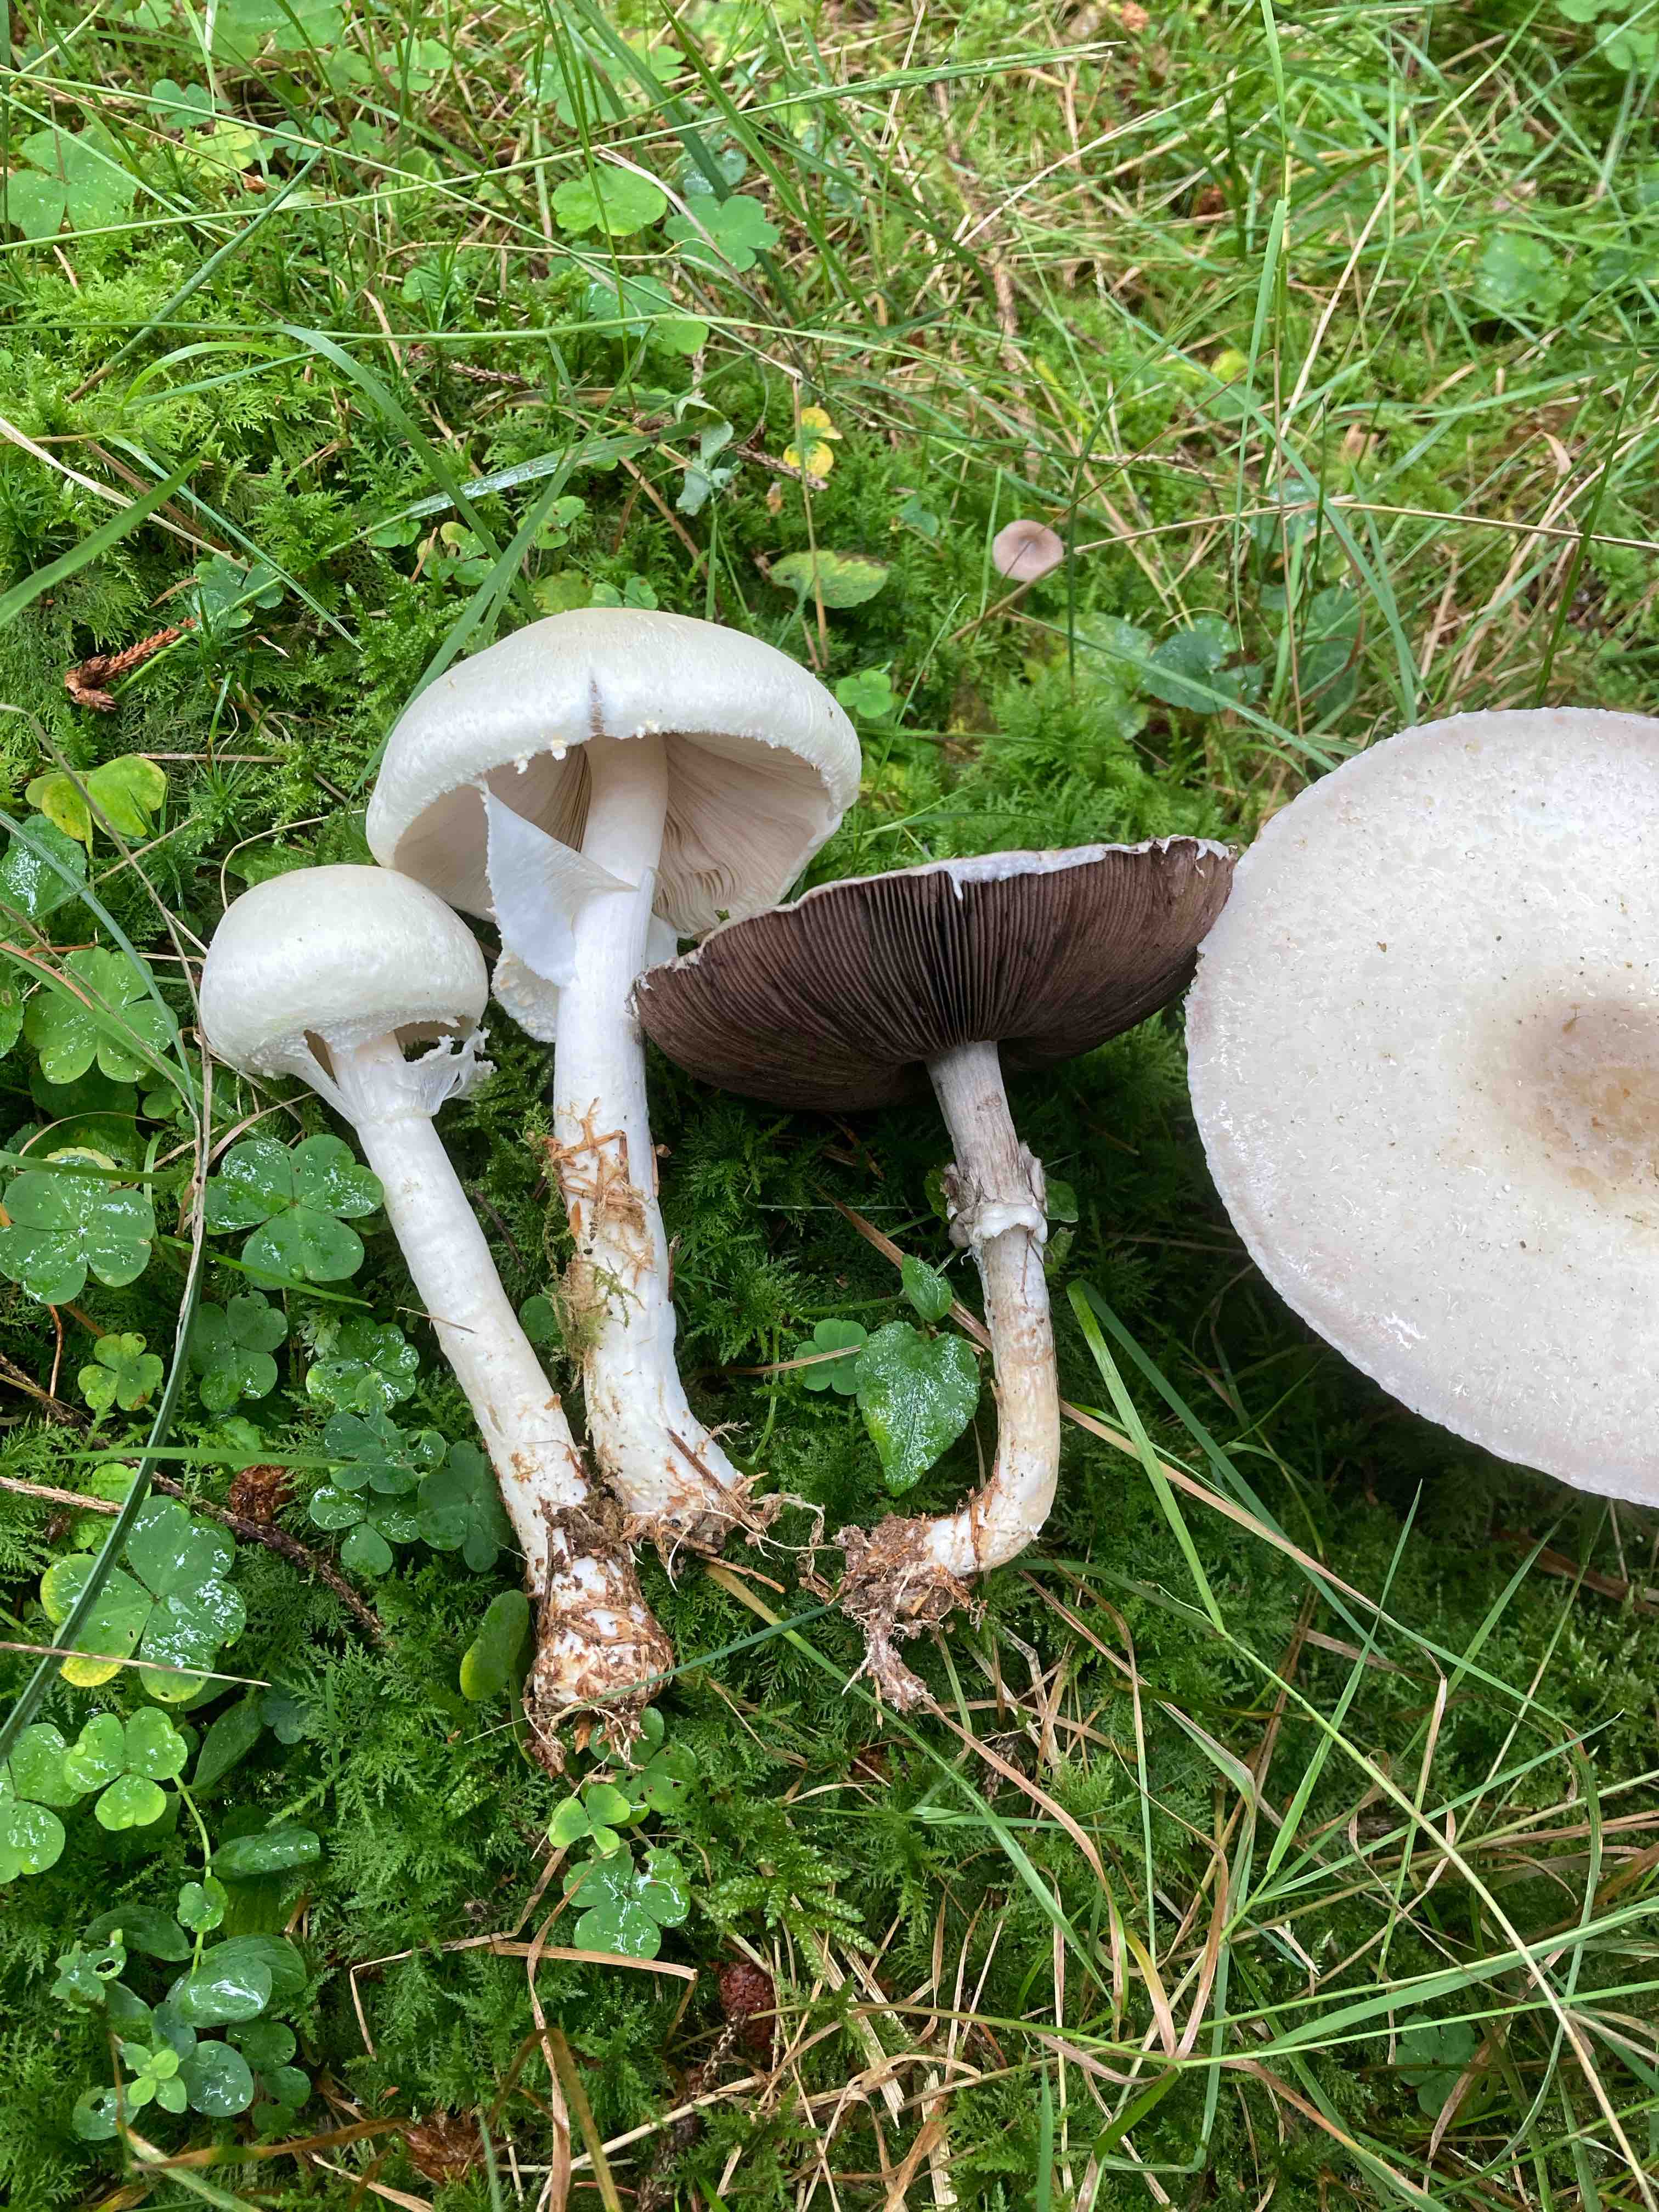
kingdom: Fungi
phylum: Basidiomycota
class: Agaricomycetes
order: Agaricales
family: Agaricaceae
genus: Agaricus
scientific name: Agaricus sylvicola
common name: skiveknoldet champignon
